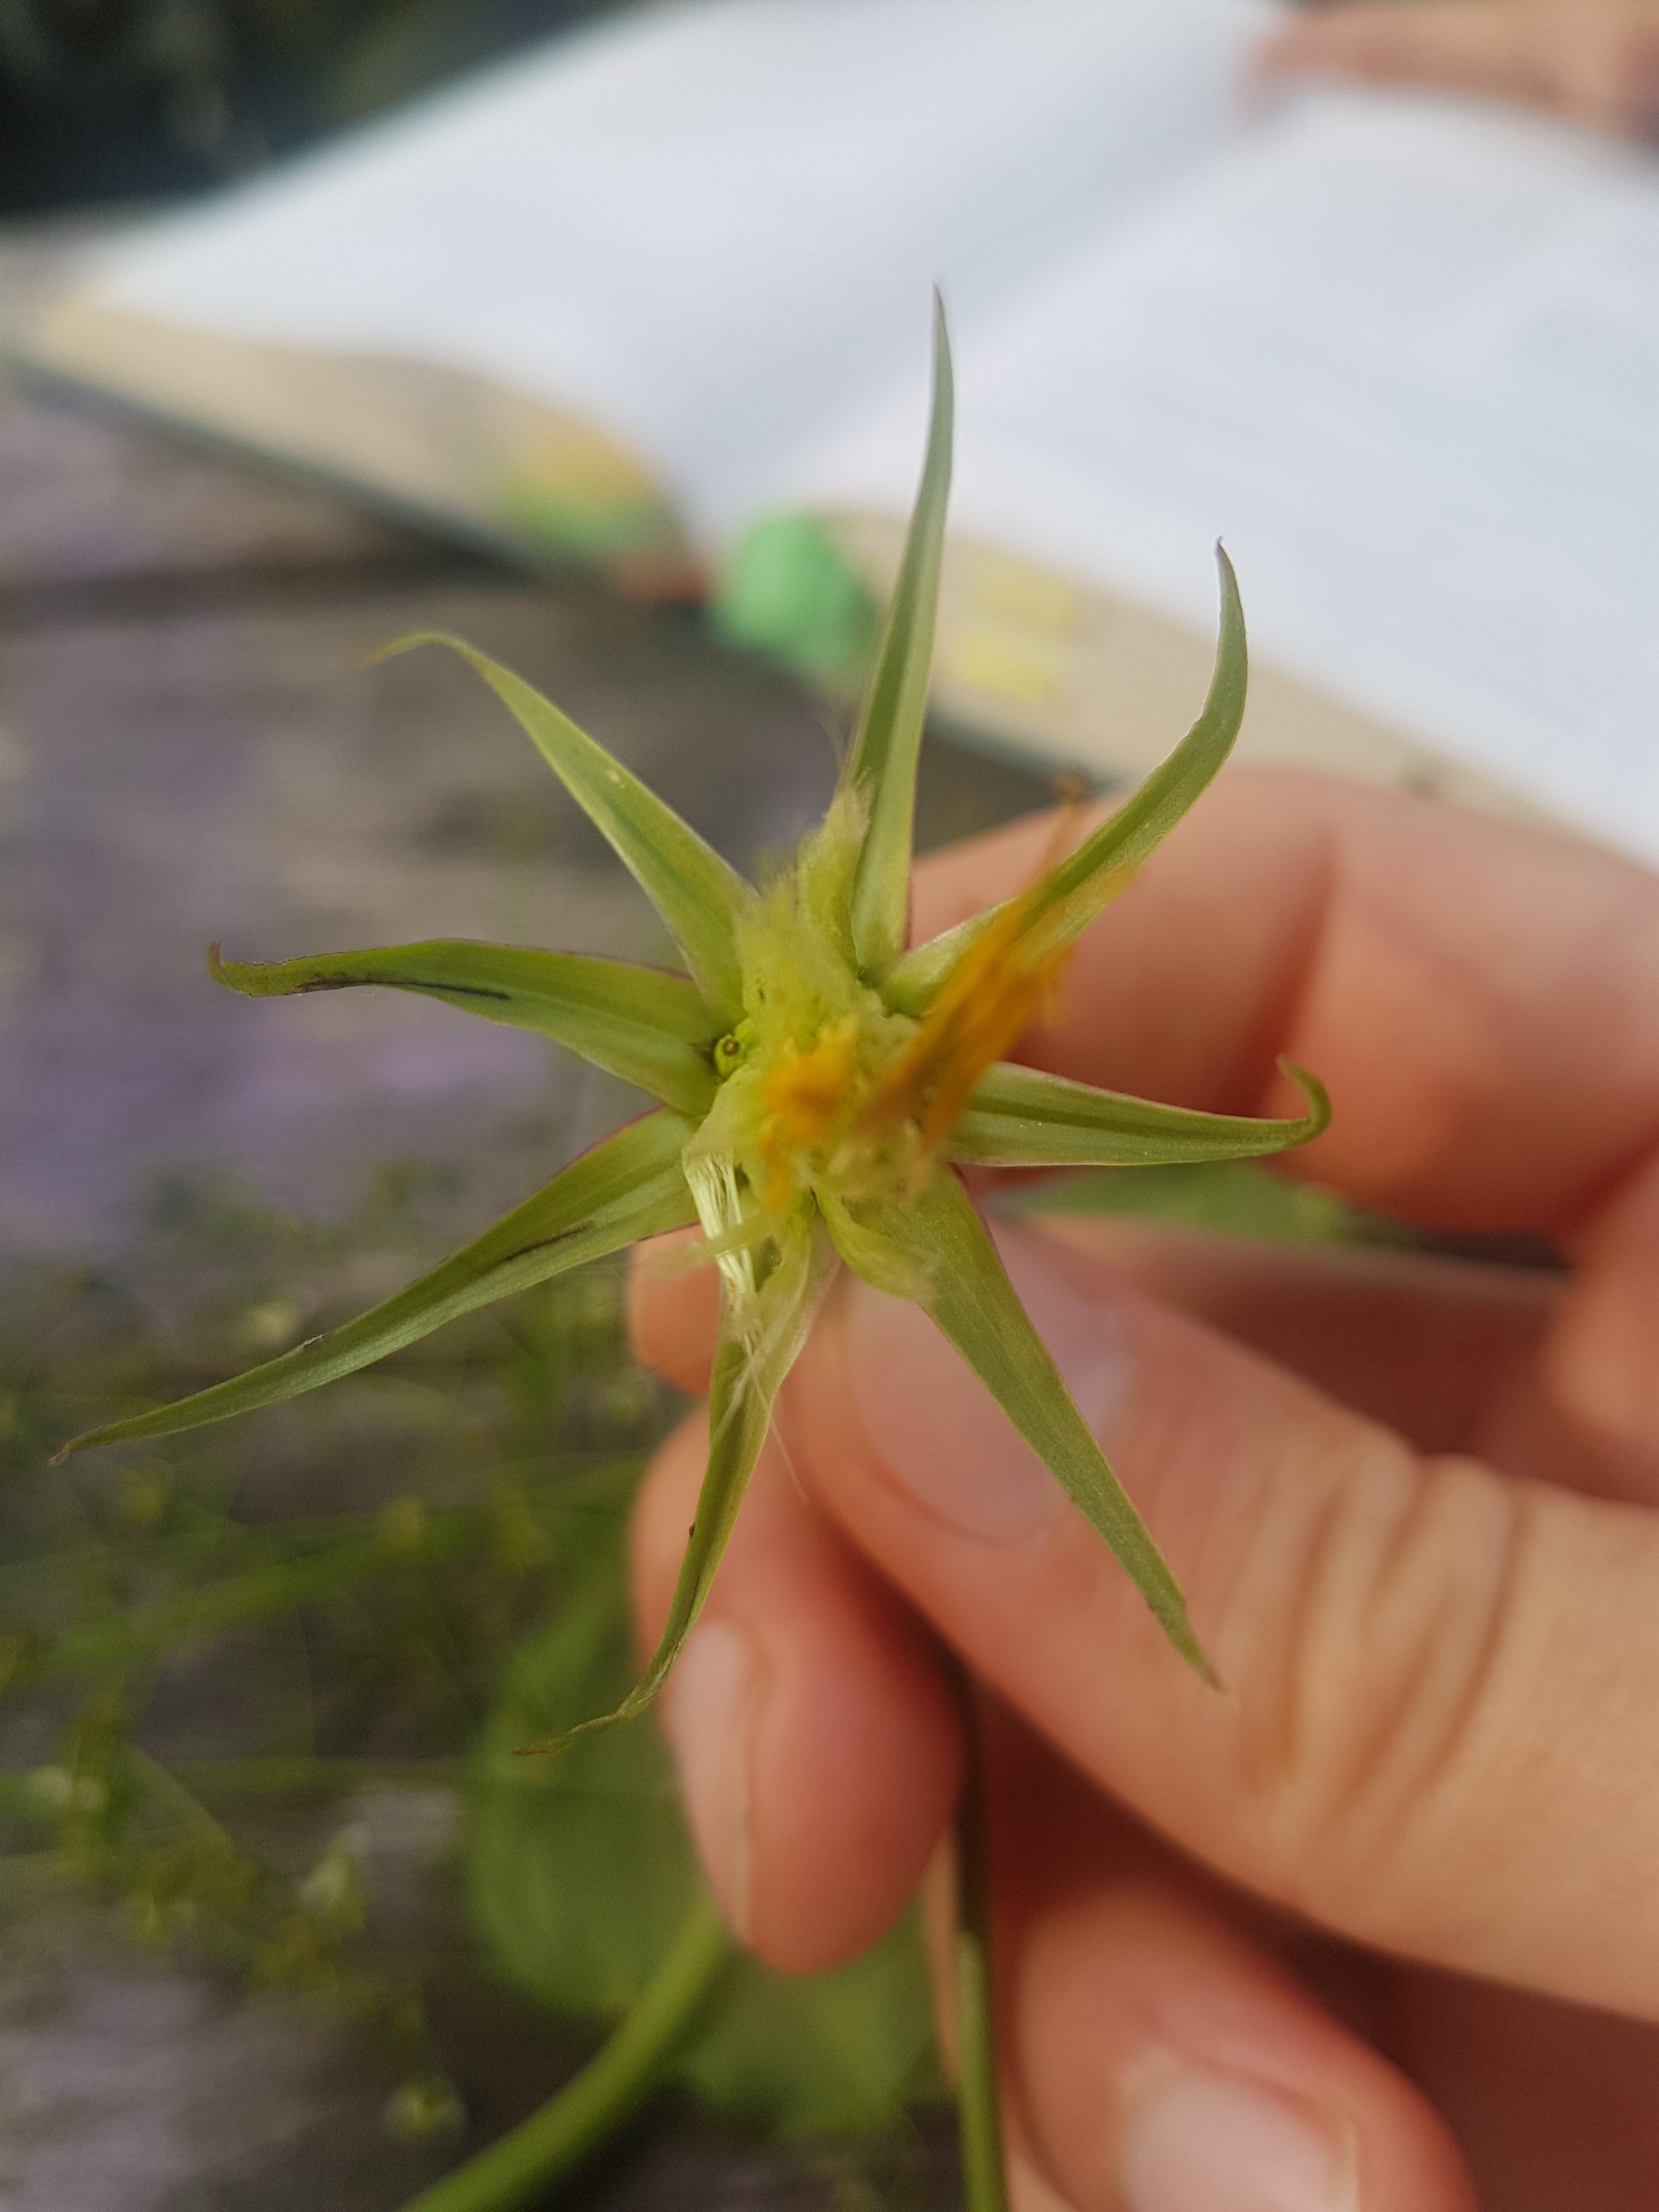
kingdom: Plantae
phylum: Tracheophyta
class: Magnoliopsida
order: Asterales
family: Asteraceae
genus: Tragopogon
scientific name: Tragopogon pratensis
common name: Gedeskæg
